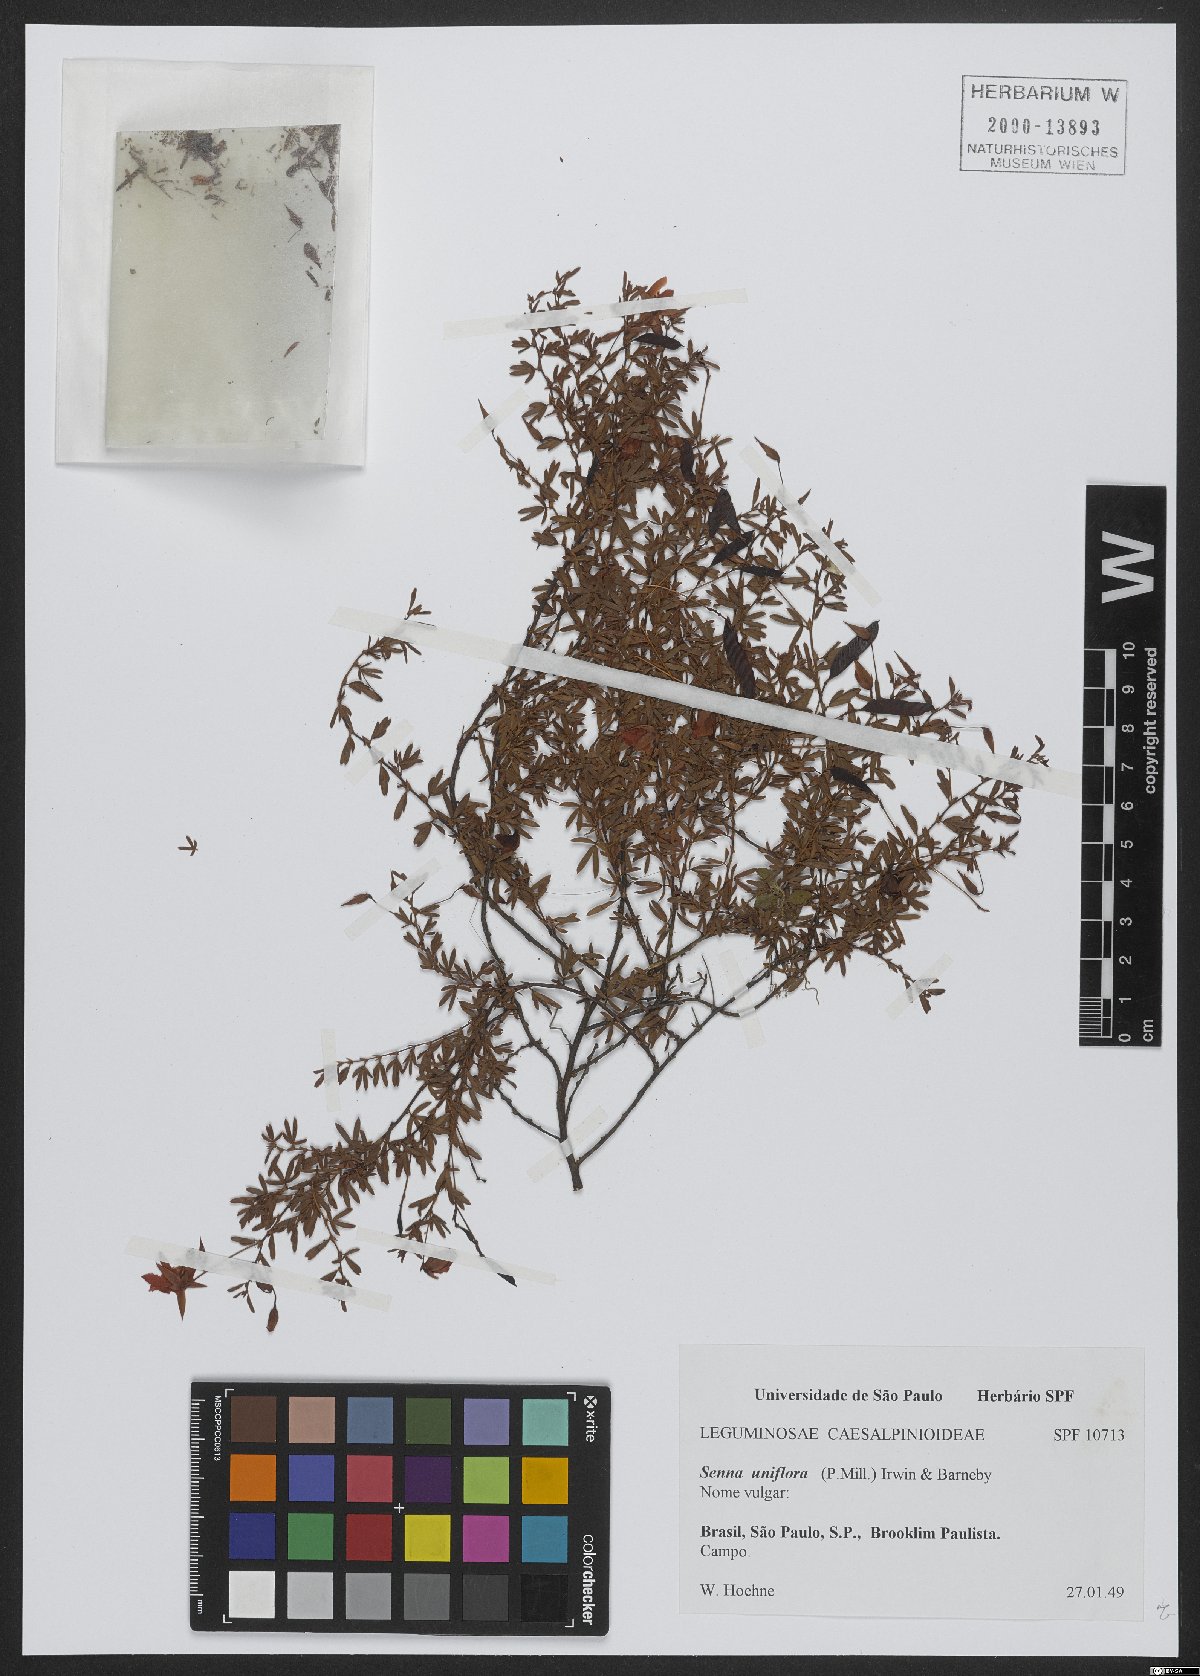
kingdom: Plantae
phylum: Tracheophyta
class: Magnoliopsida
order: Fabales
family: Fabaceae
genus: Senna
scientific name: Senna uniflora
